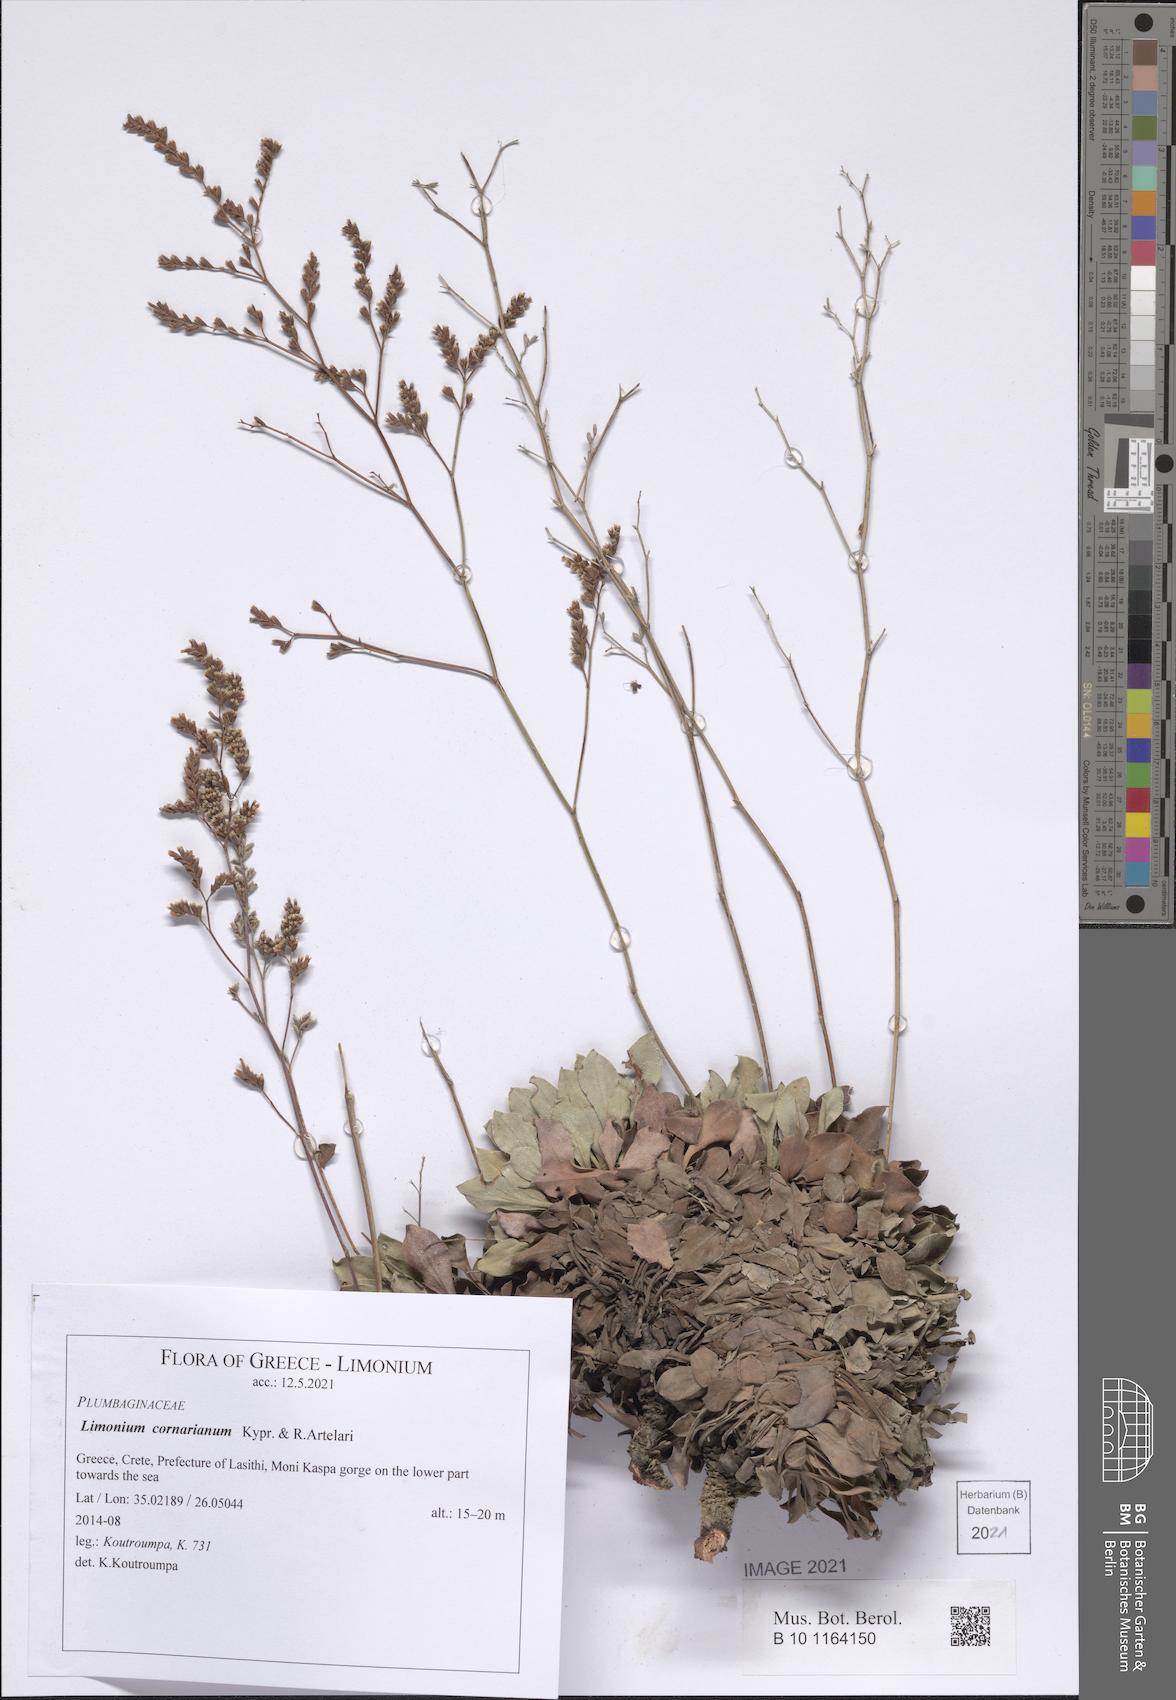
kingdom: Plantae
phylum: Tracheophyta
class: Magnoliopsida
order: Caryophyllales
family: Plumbaginaceae
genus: Limonium
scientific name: Limonium cornarianum
